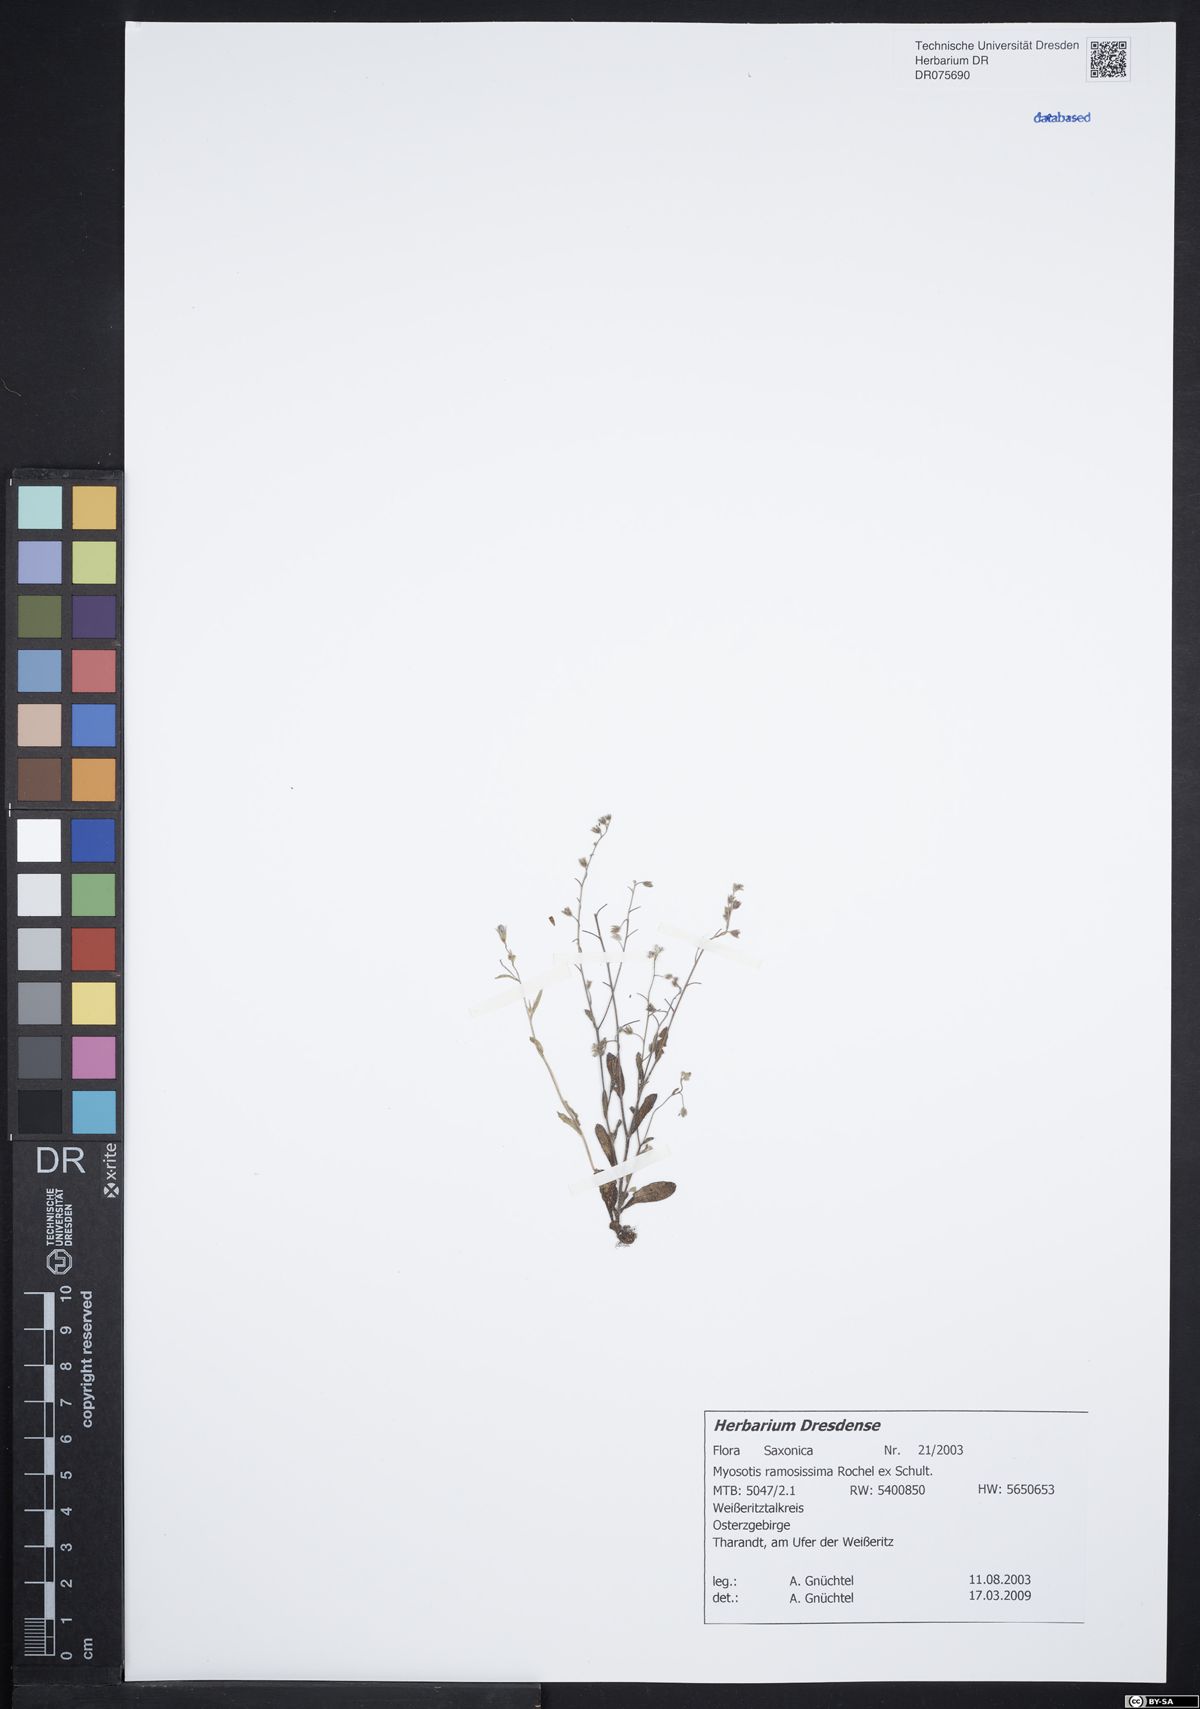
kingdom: Plantae
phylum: Tracheophyta
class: Magnoliopsida
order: Boraginales
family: Boraginaceae
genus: Myosotis
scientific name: Myosotis ramosissima
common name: Early forget-me-not
